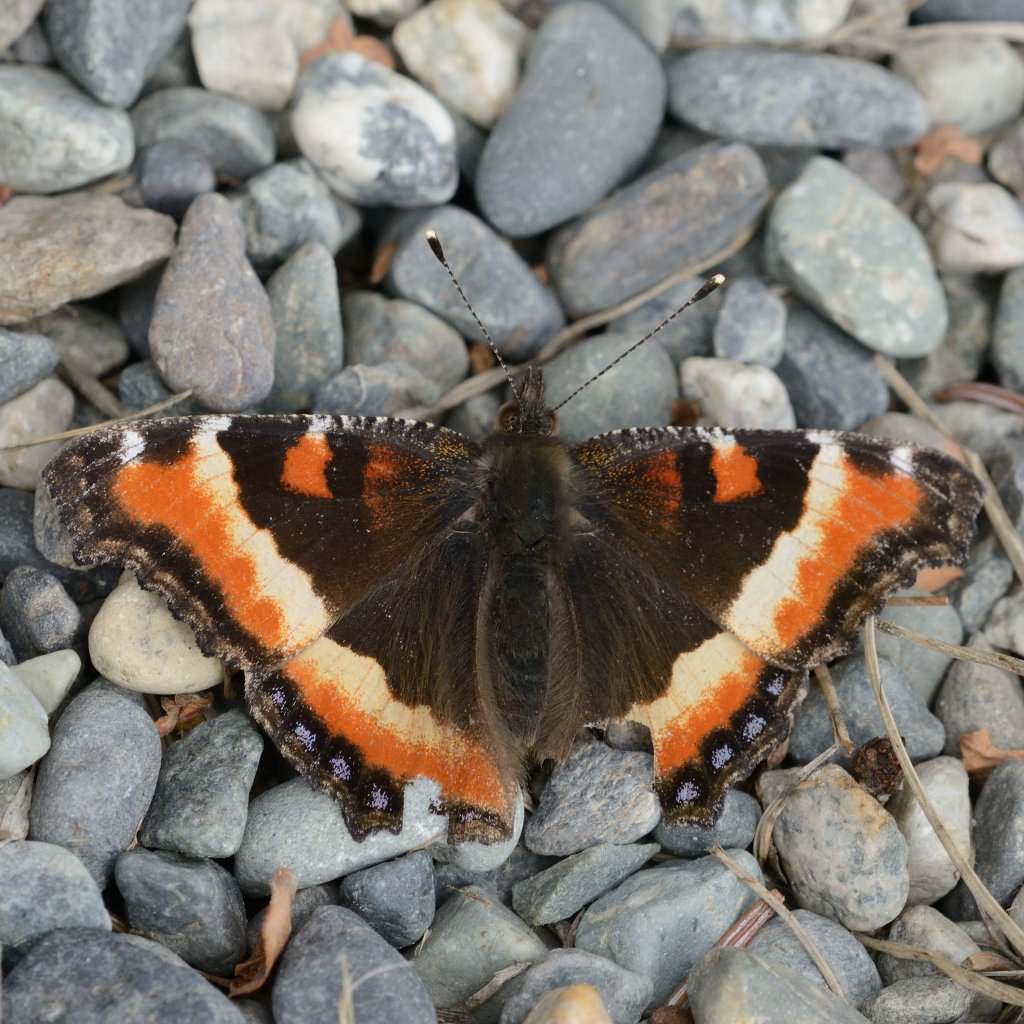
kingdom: Animalia
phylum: Arthropoda
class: Insecta
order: Lepidoptera
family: Nymphalidae
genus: Aglais
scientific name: Aglais milberti
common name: Milbert's Tortoiseshell
